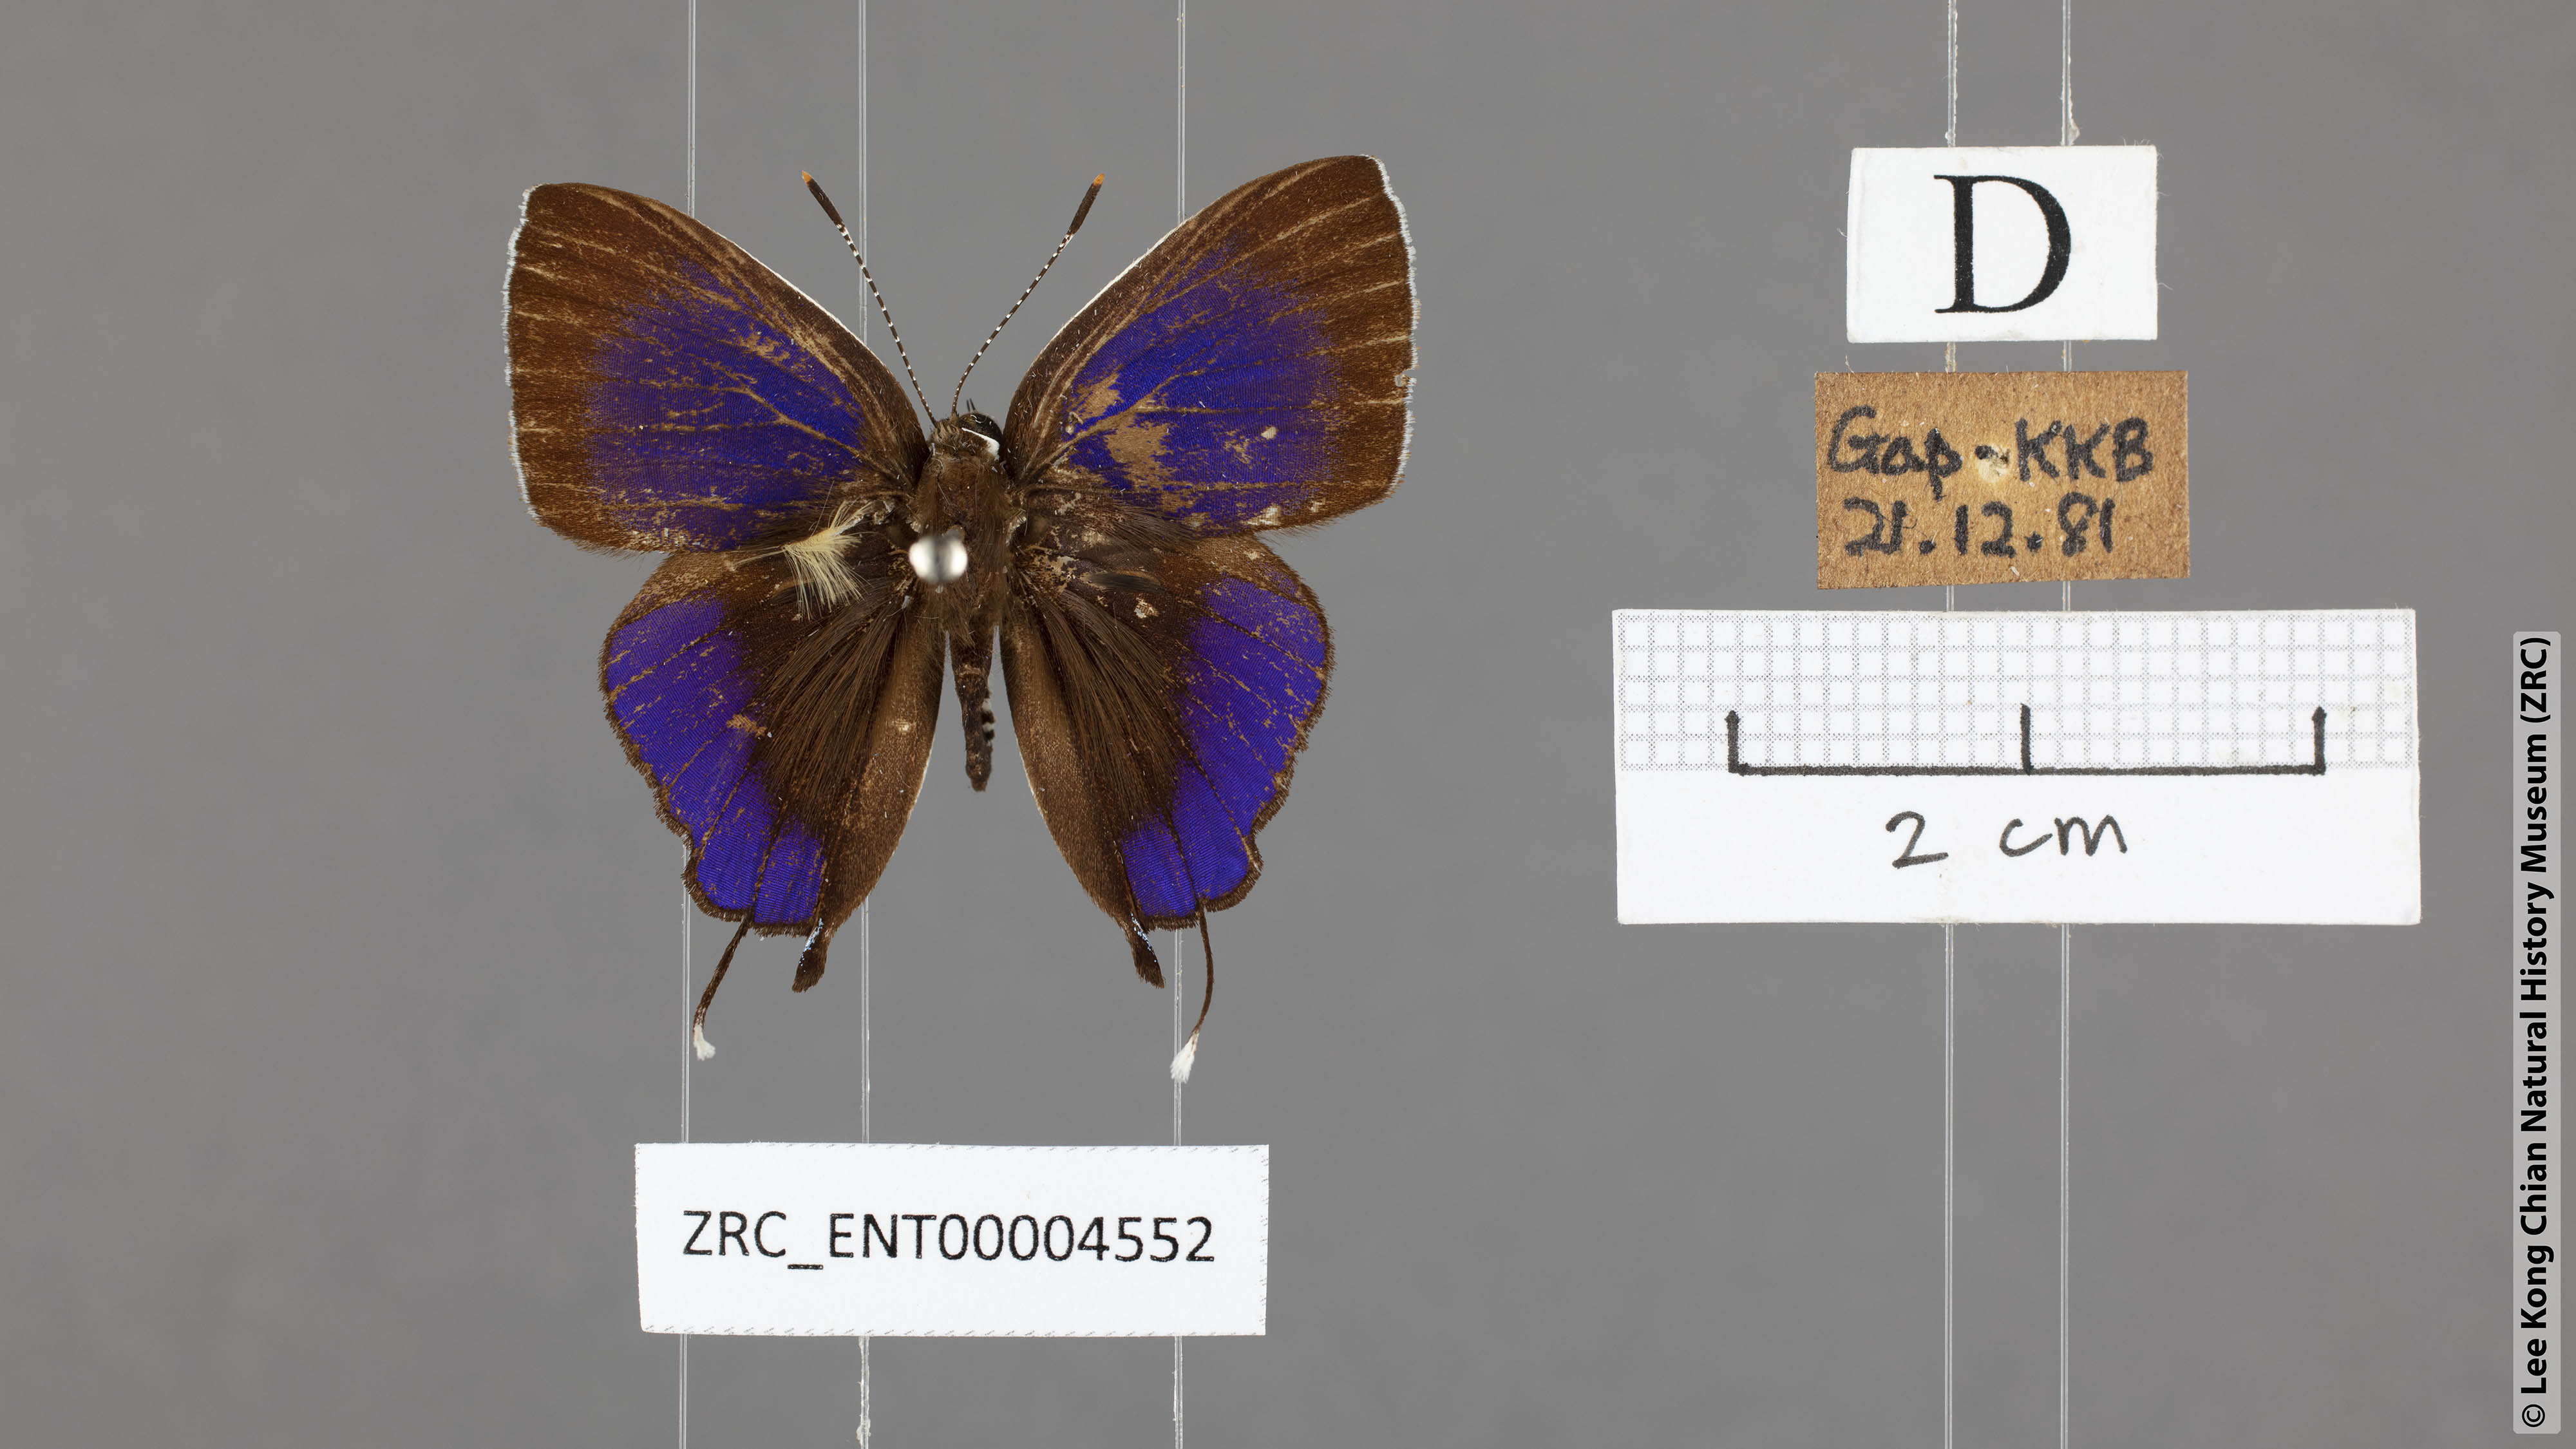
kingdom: Animalia
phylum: Arthropoda
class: Insecta
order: Lepidoptera
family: Lycaenidae
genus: Sithon
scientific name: Sithon nedymond
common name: Plush
